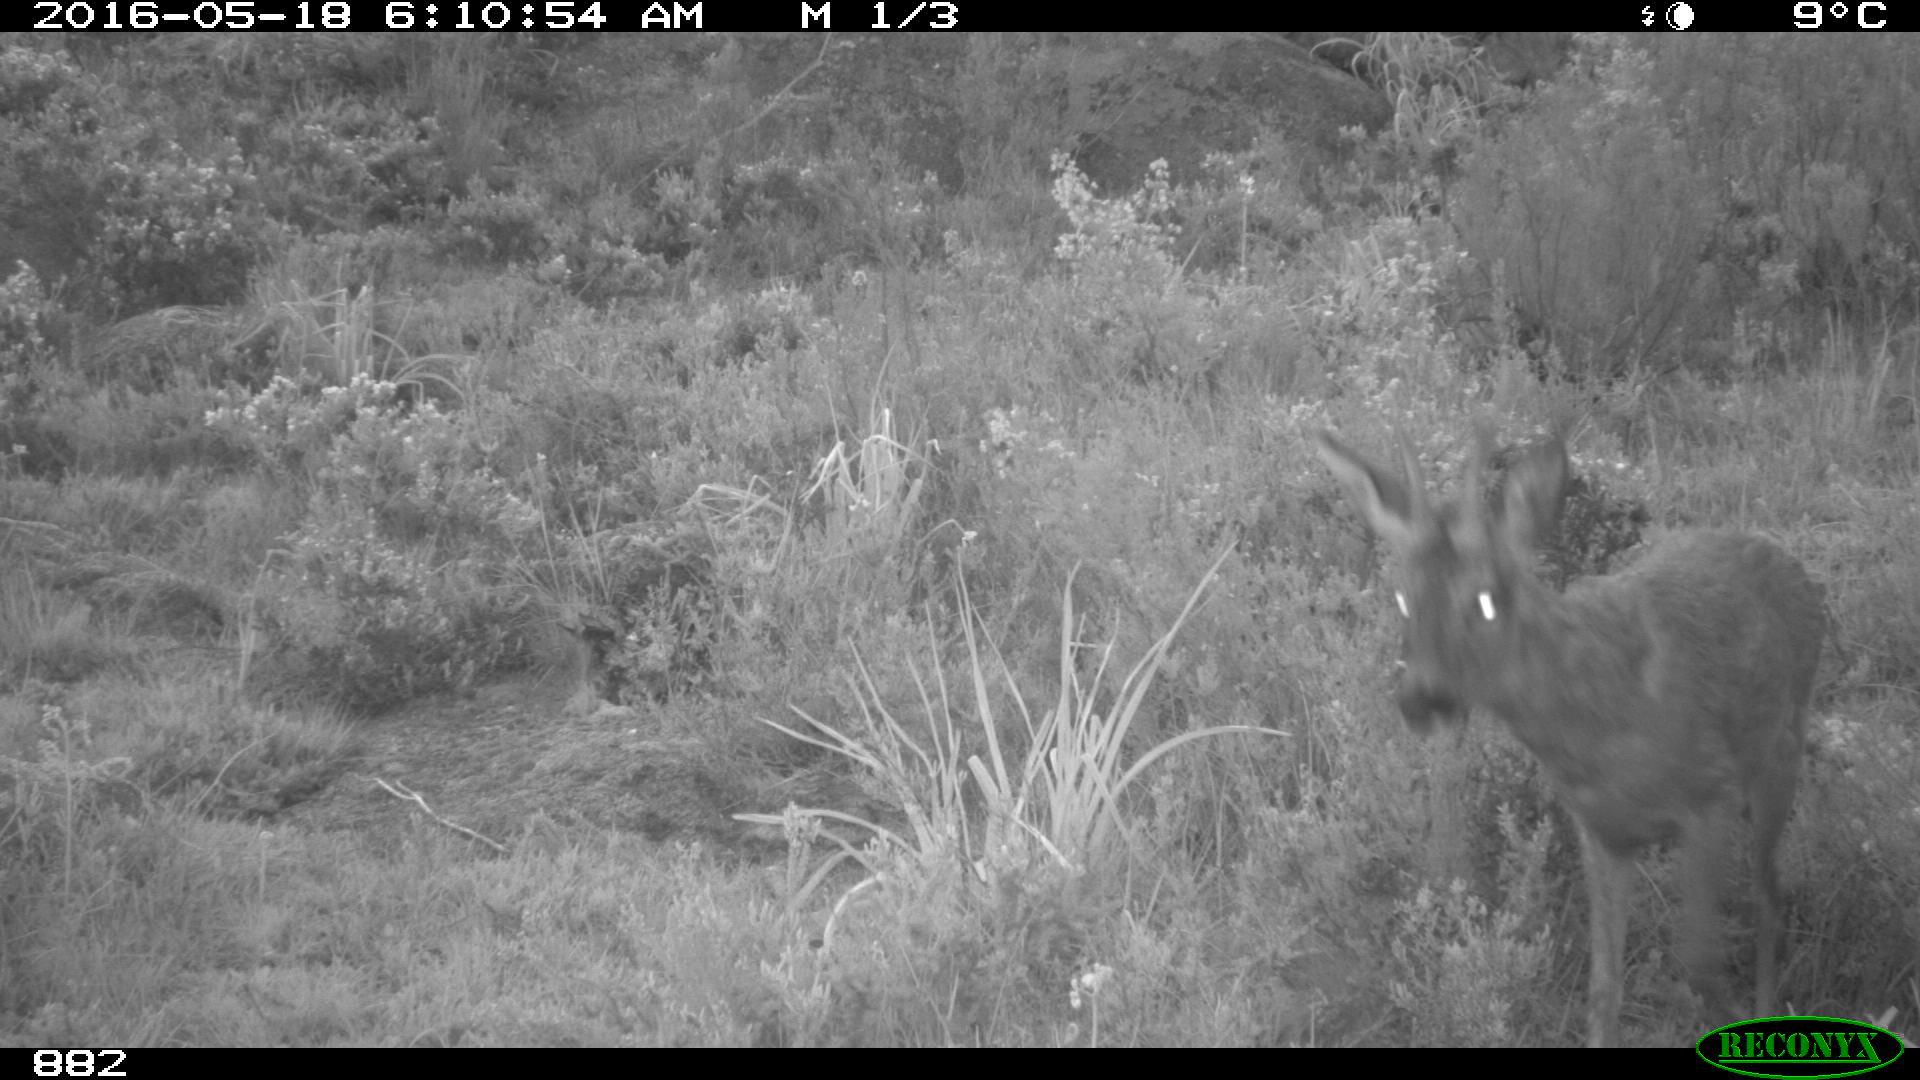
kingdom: Animalia
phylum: Chordata
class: Mammalia
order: Artiodactyla
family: Cervidae
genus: Capreolus
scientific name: Capreolus capreolus
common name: Western roe deer
